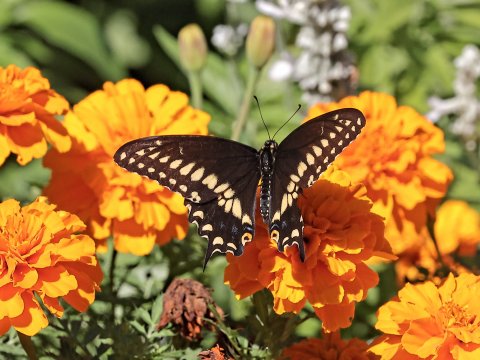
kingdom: Animalia
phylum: Arthropoda
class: Insecta
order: Lepidoptera
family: Papilionidae
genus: Papilio
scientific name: Papilio polyxenes
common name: Black Swallowtail
